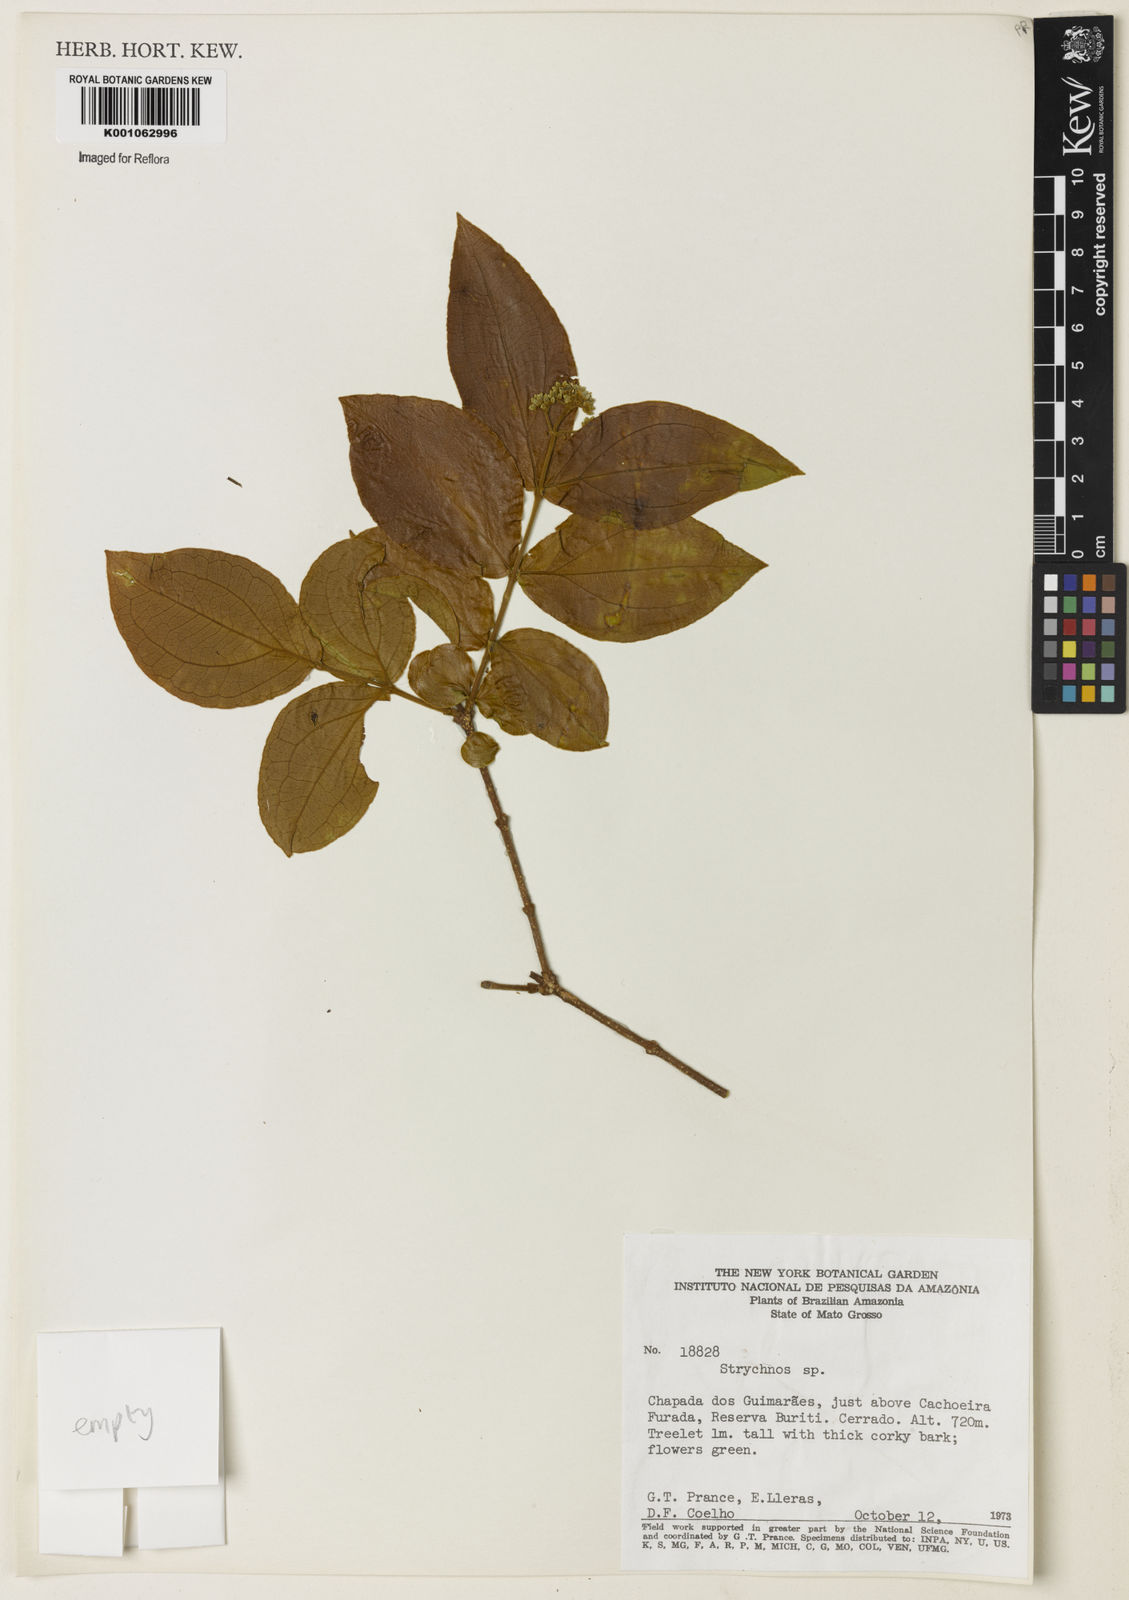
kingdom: Plantae
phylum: Tracheophyta
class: Magnoliopsida
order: Gentianales
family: Loganiaceae
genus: Strychnos
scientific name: Strychnos
